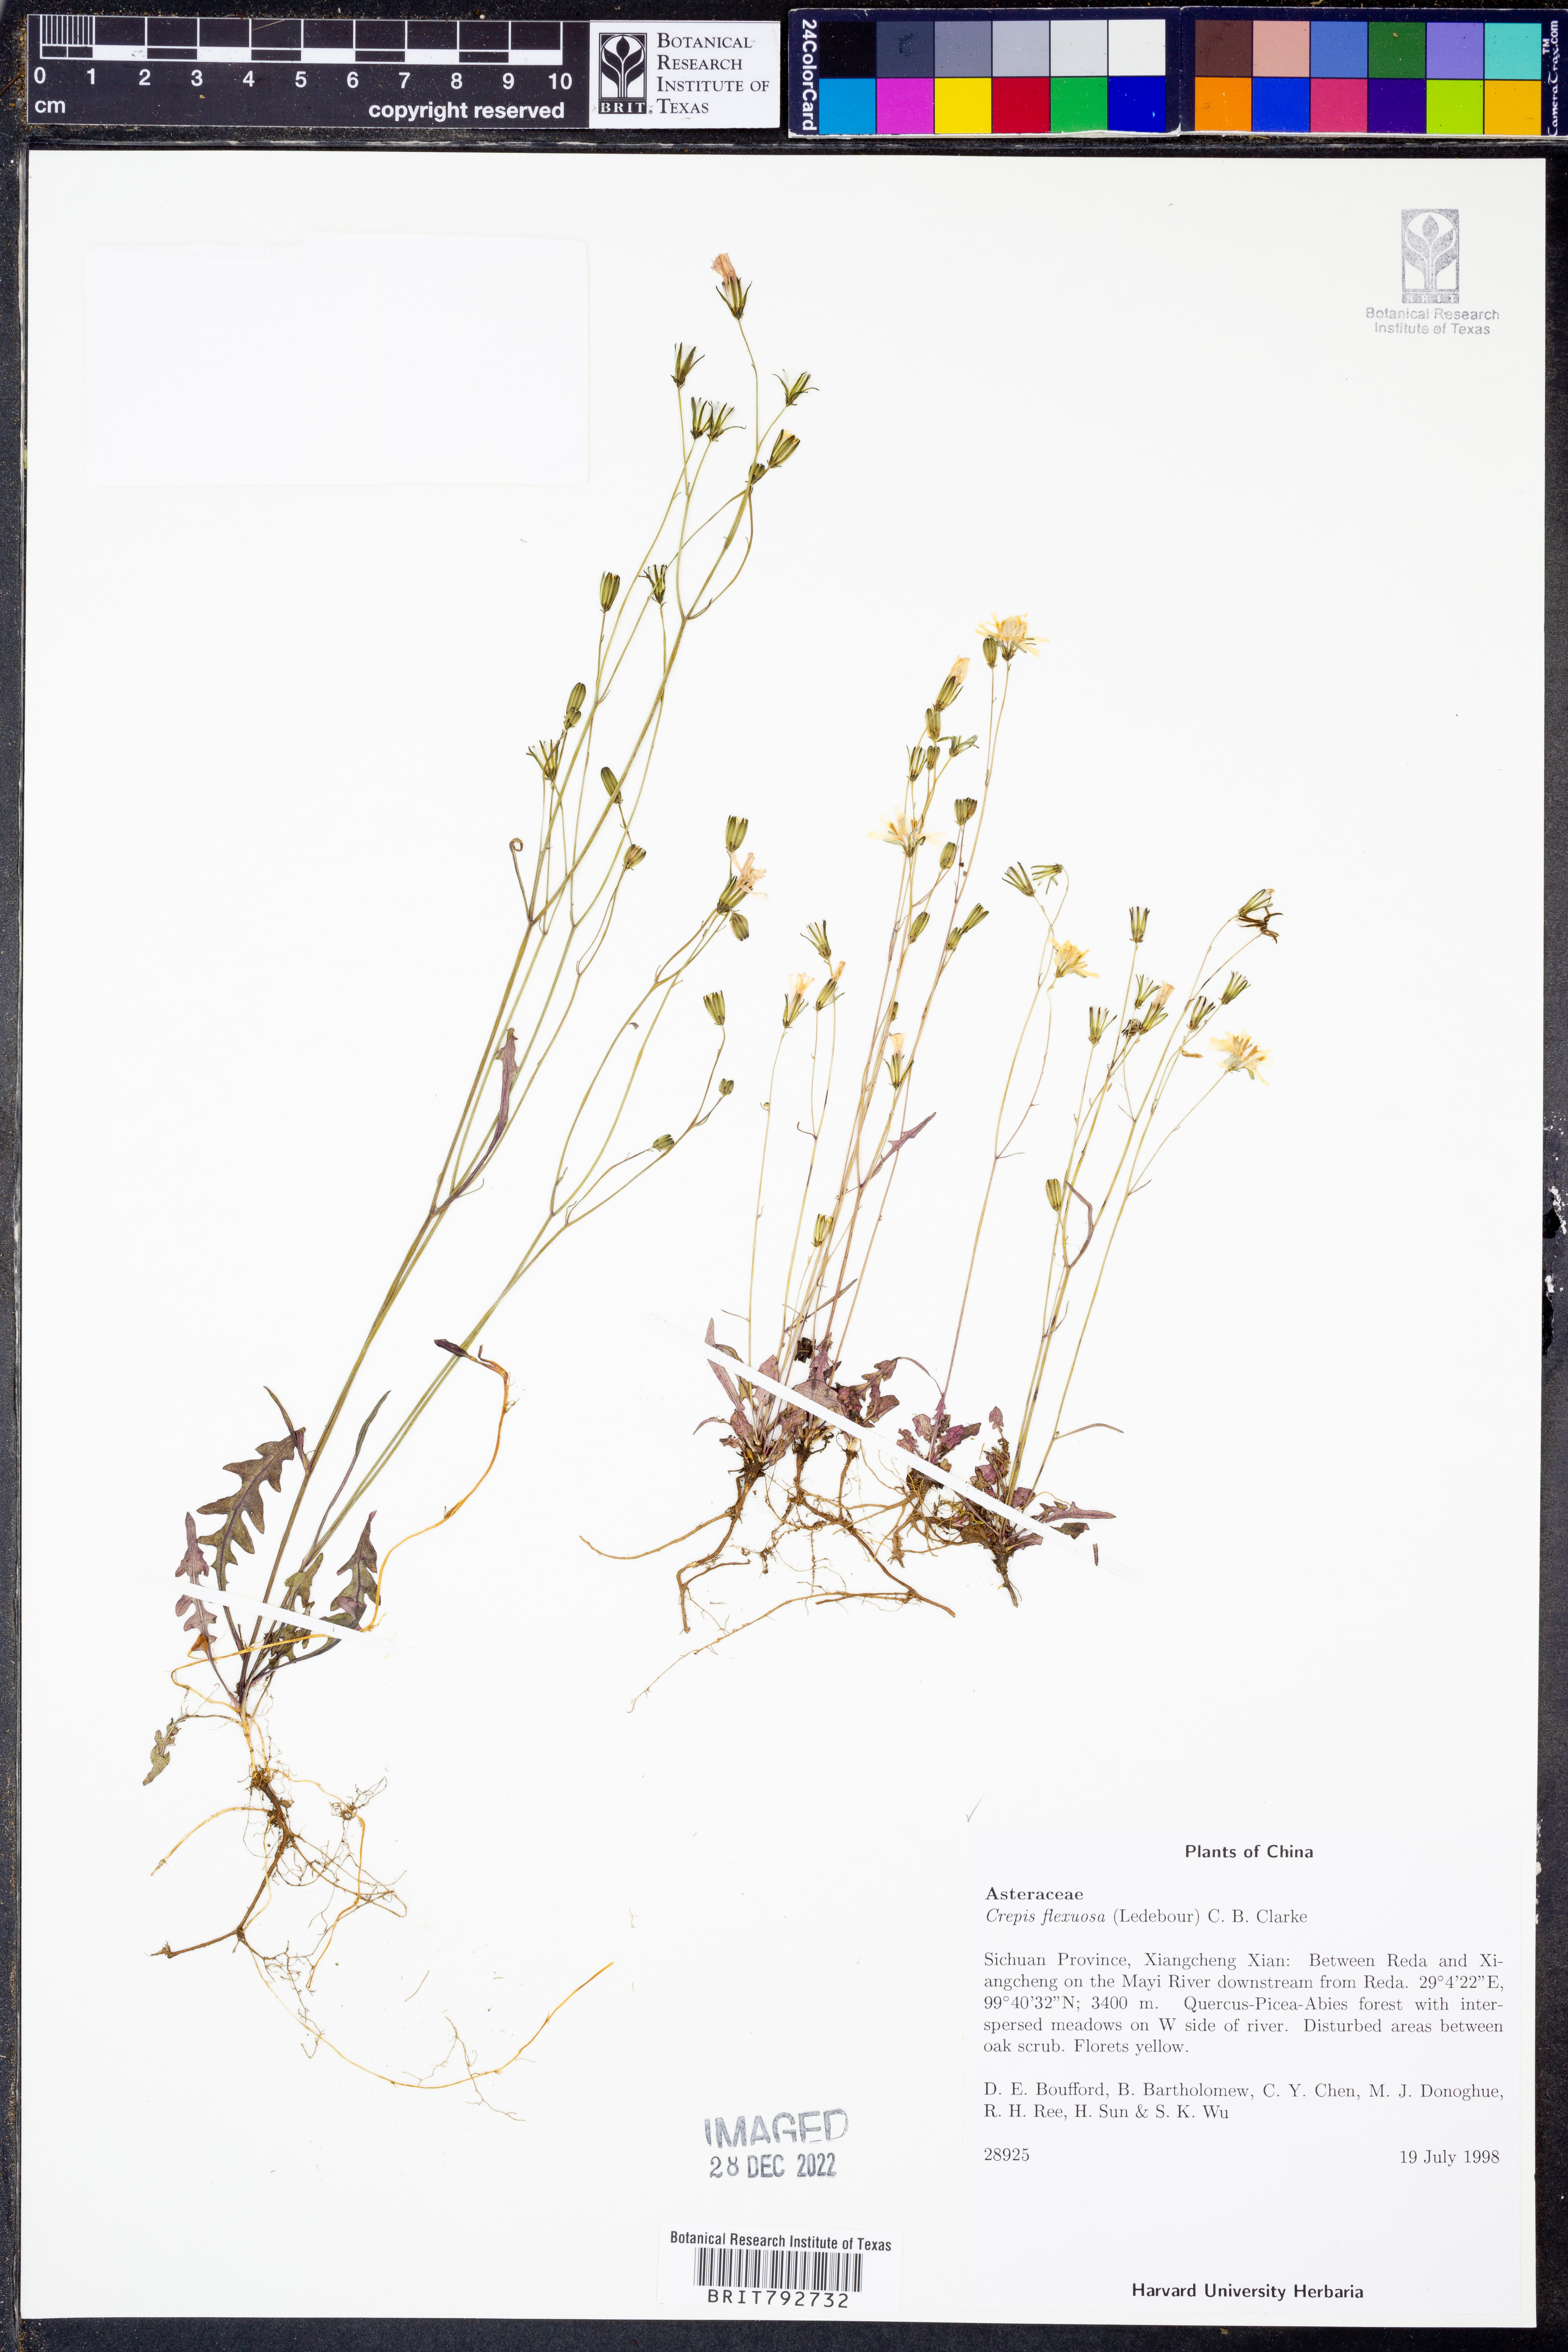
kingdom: Plantae
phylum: Tracheophyta
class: Magnoliopsida
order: Asterales
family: Asteraceae
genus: Askellia
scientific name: Askellia flexuosa
